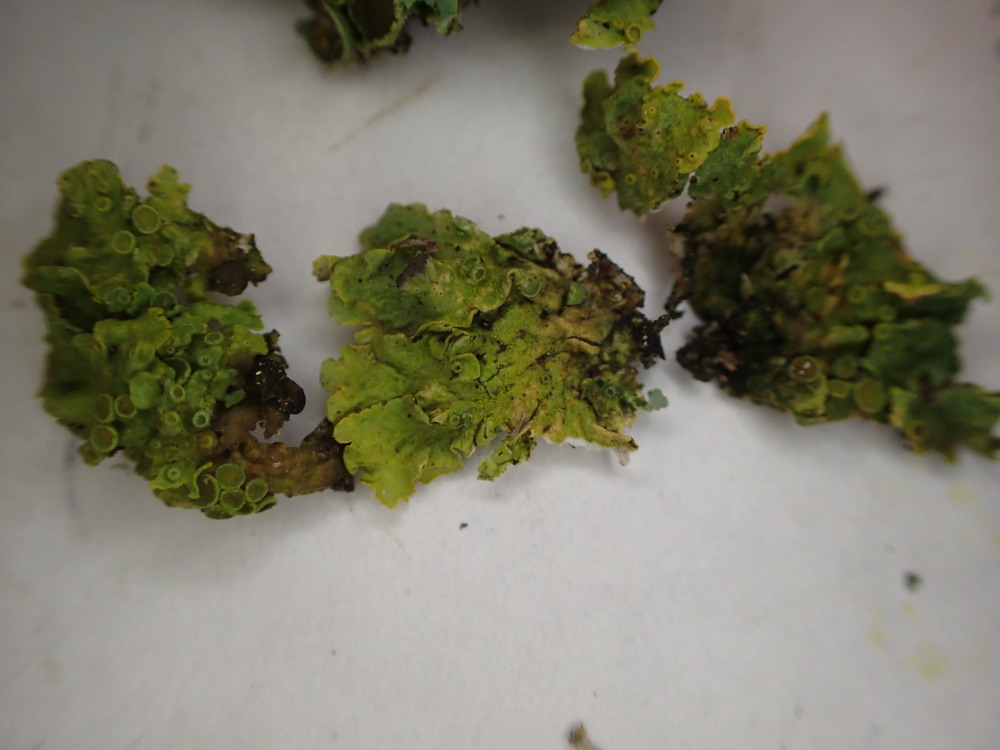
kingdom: Fungi
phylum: Ascomycota
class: Lecanoromycetes
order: Teloschistales
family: Teloschistaceae
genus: Xanthoria
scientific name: Xanthoria parietina
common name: almindelig væggelav
